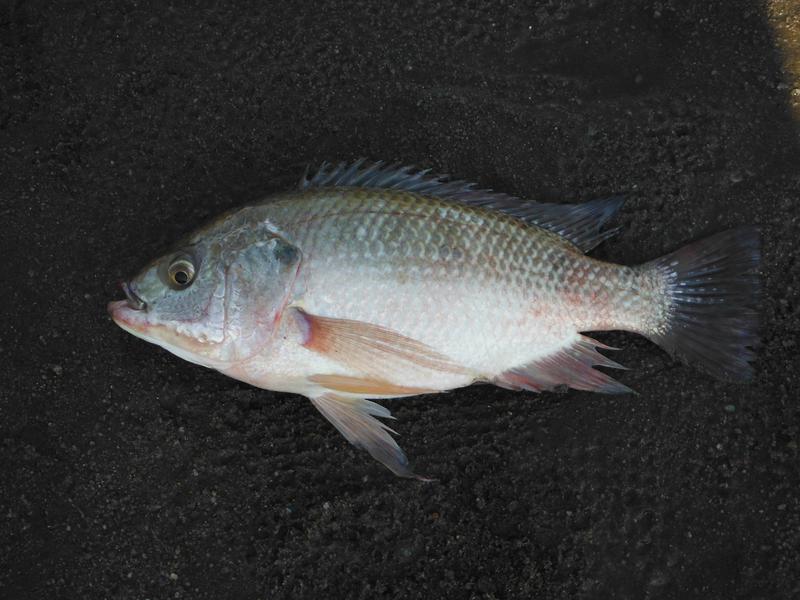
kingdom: Animalia
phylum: Chordata
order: Perciformes
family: Cichlidae
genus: Oreochromis
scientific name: Oreochromis esculentus
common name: Carp
